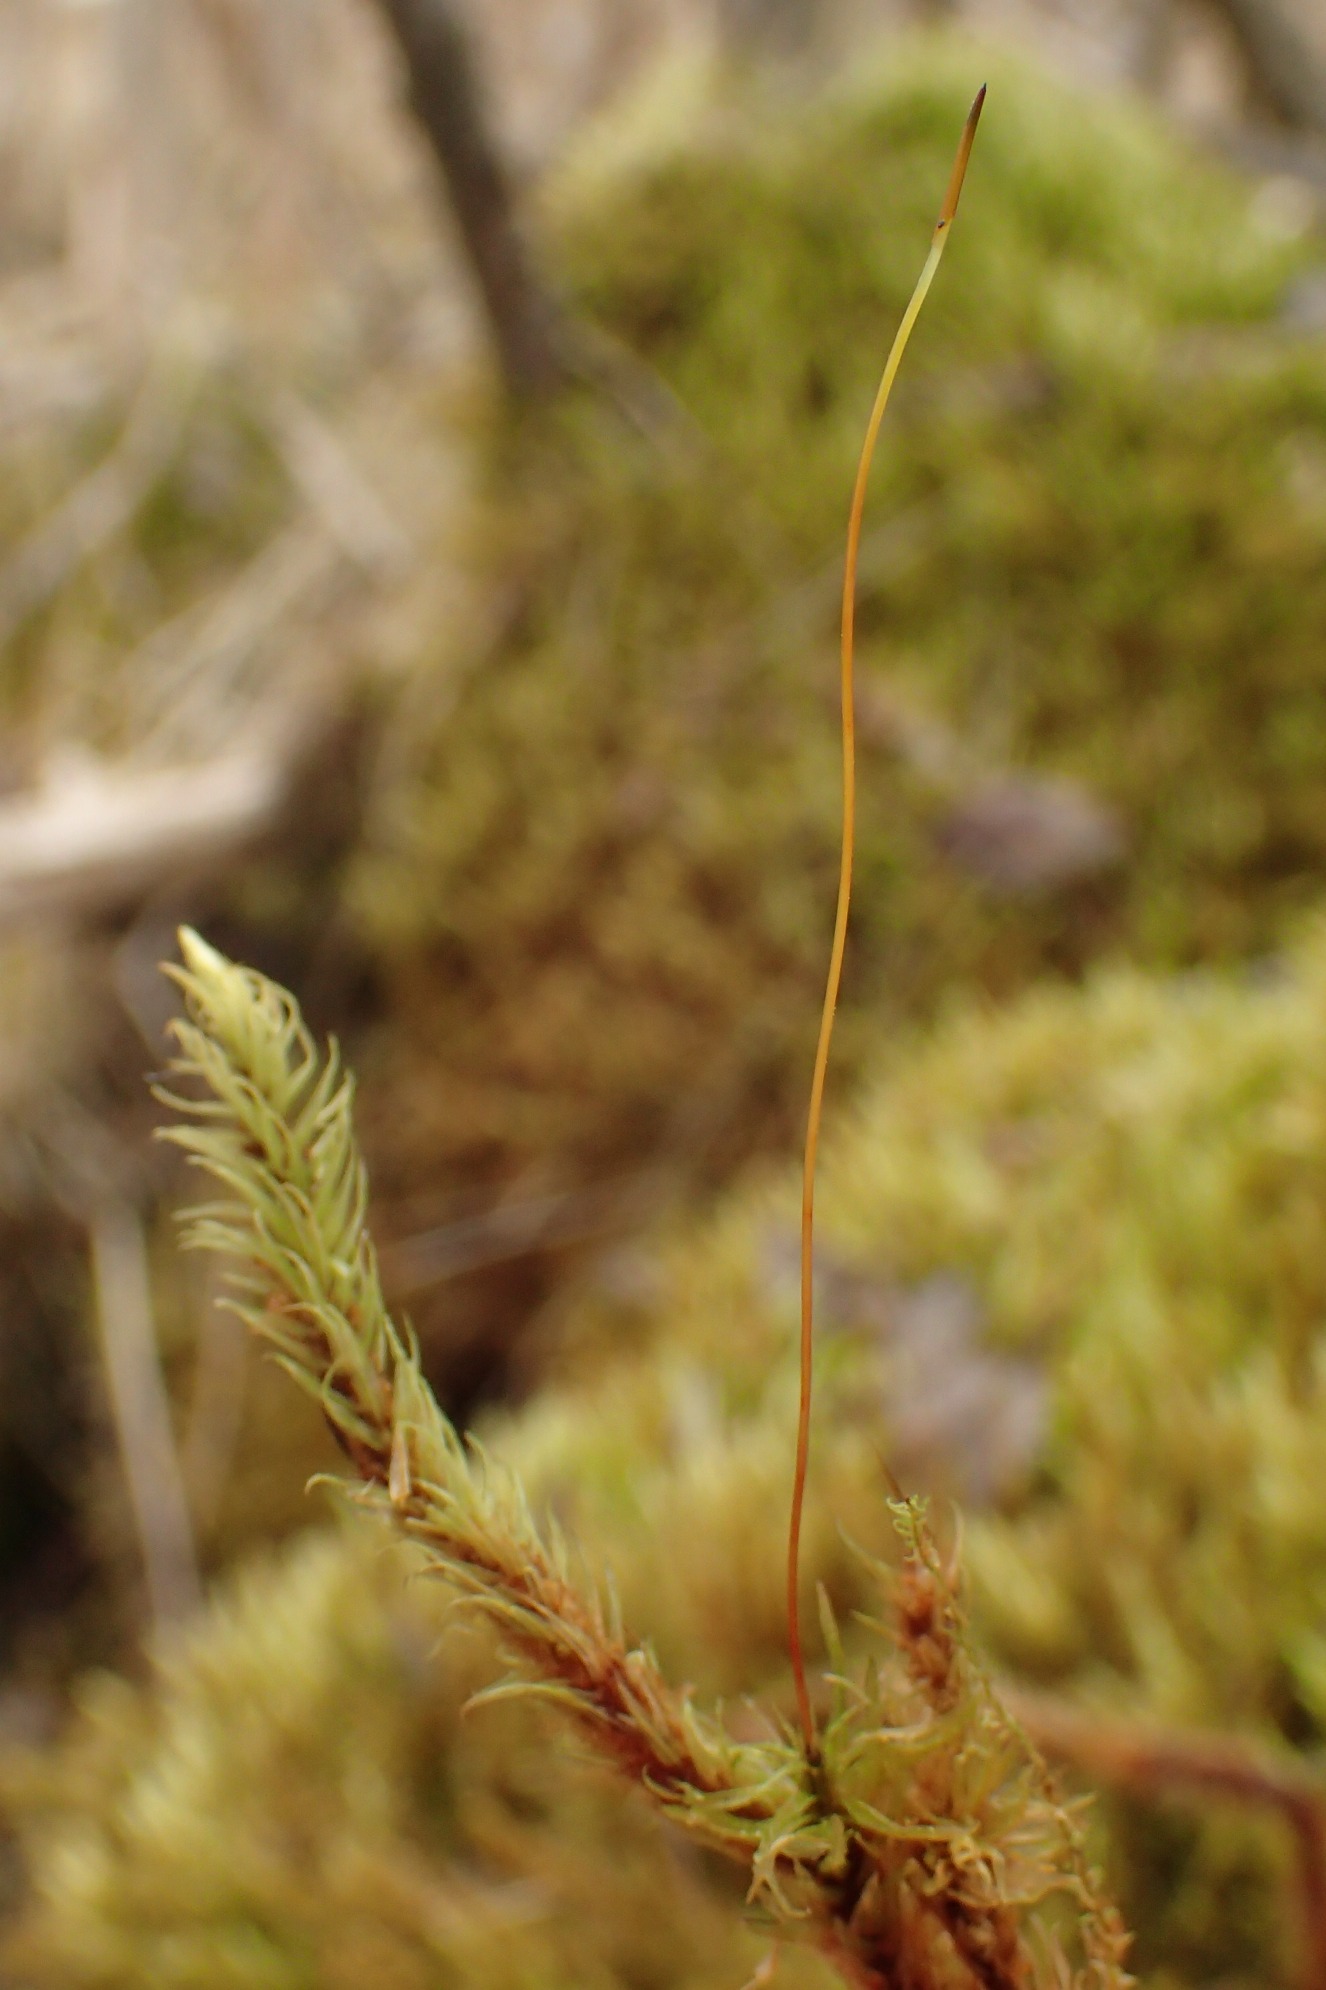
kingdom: Plantae
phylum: Bryophyta
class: Bryopsida
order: Aulacomniales
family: Aulacomniaceae
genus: Aulacomnium
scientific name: Aulacomnium palustre
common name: Almindelig filtmos
